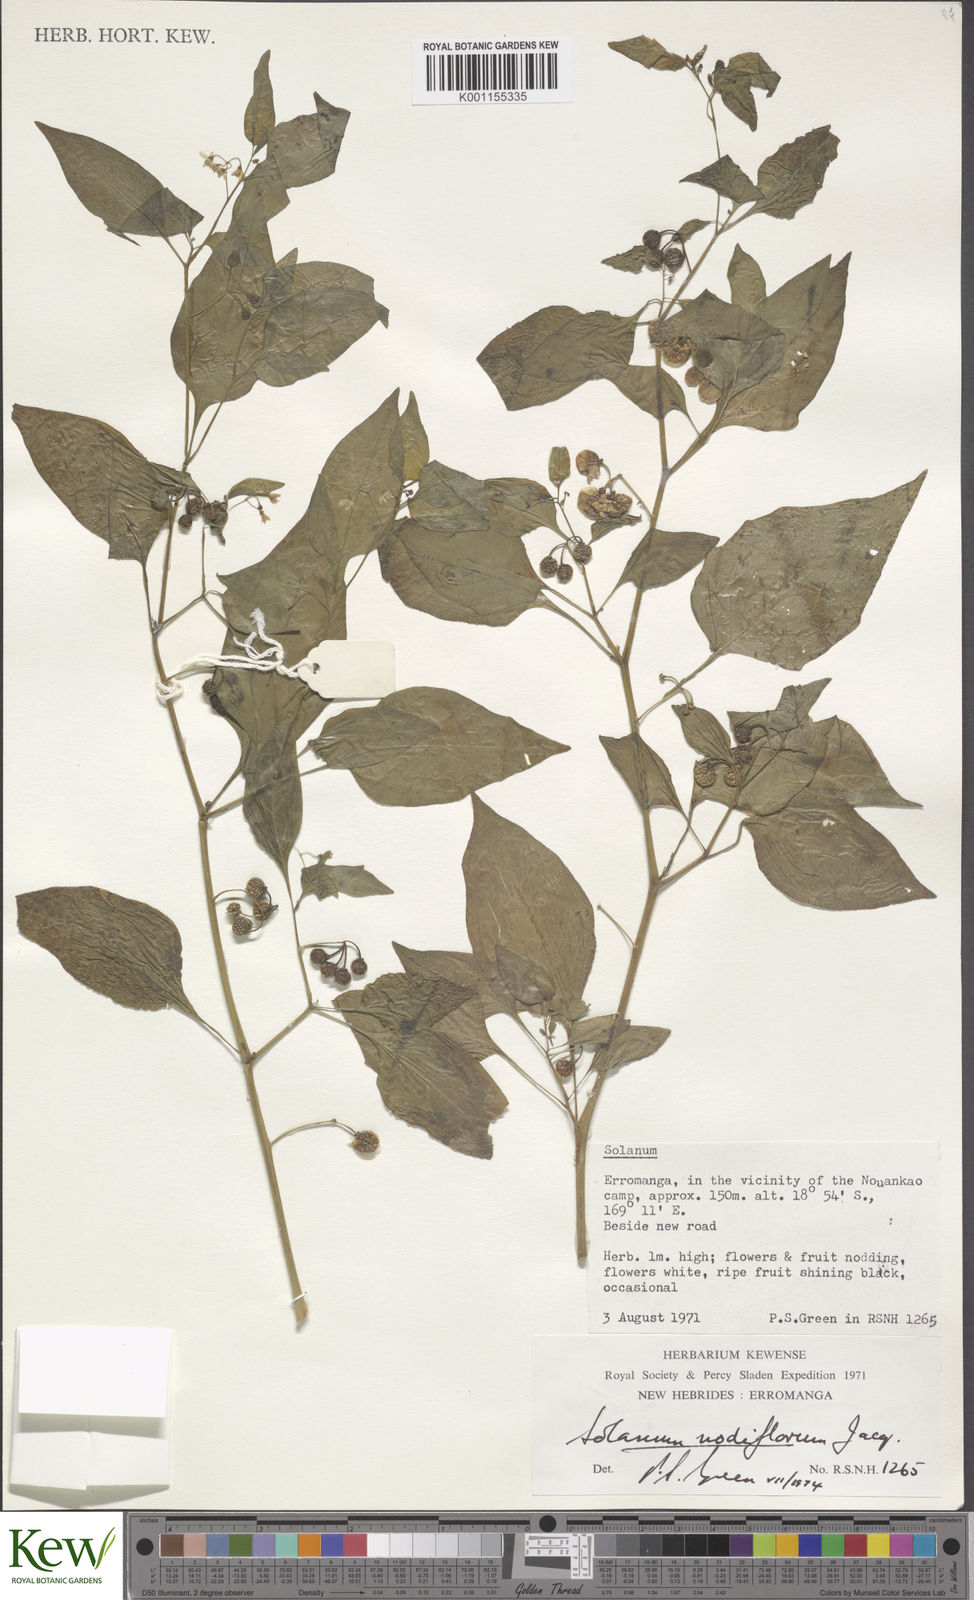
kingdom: Plantae
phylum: Tracheophyta
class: Magnoliopsida
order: Solanales
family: Solanaceae
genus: Solanum
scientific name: Solanum americanum
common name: American black nightshade
